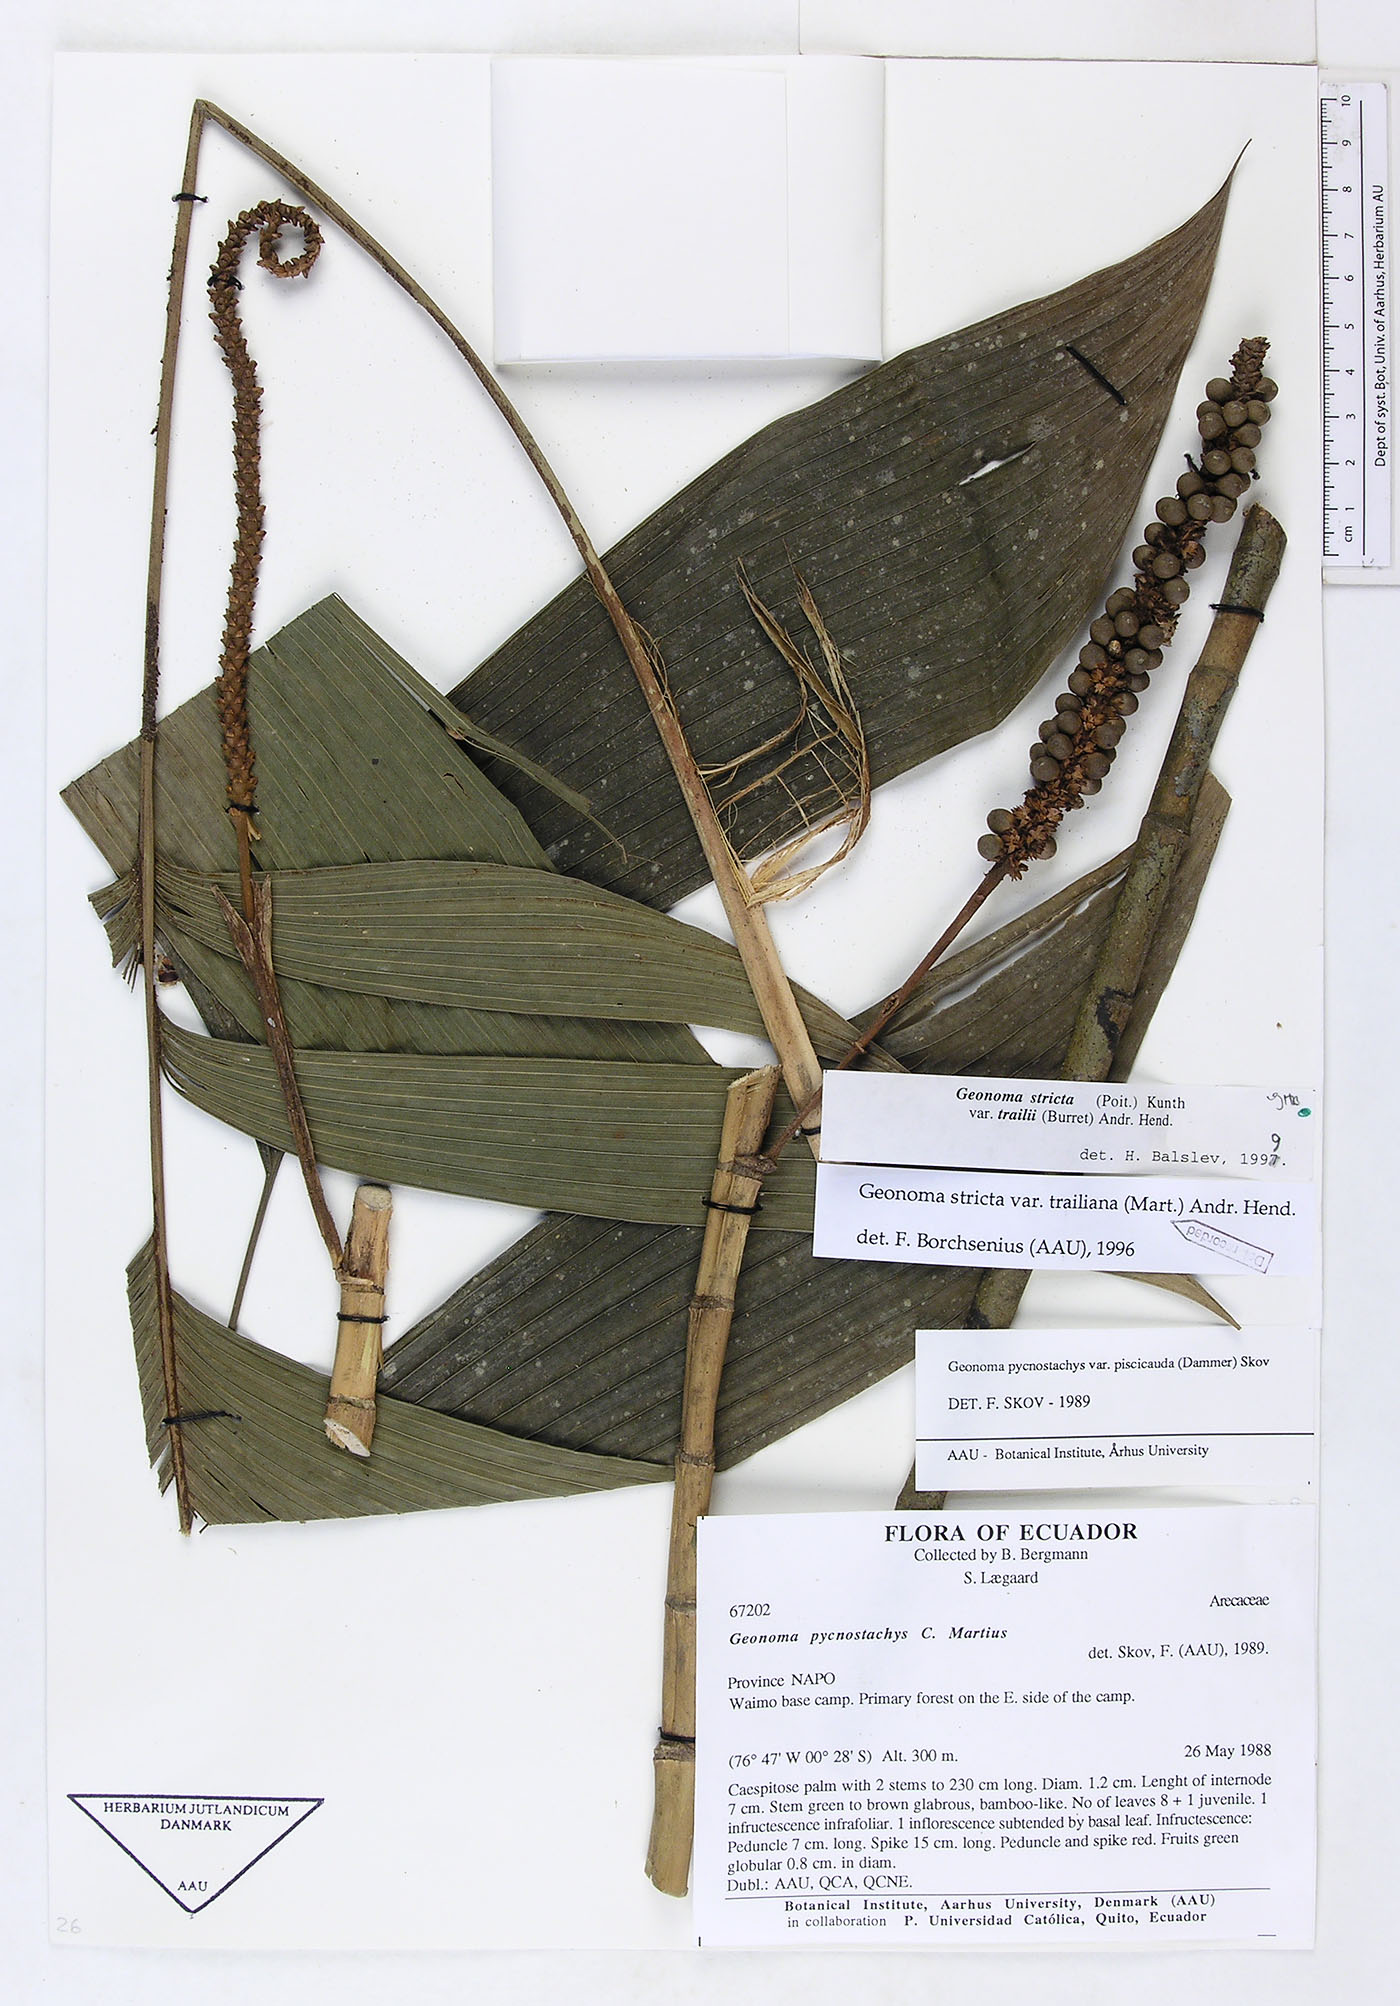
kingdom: Plantae
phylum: Tracheophyta
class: Liliopsida
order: Arecales
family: Arecaceae
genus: Geonoma
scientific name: Geonoma stricta
